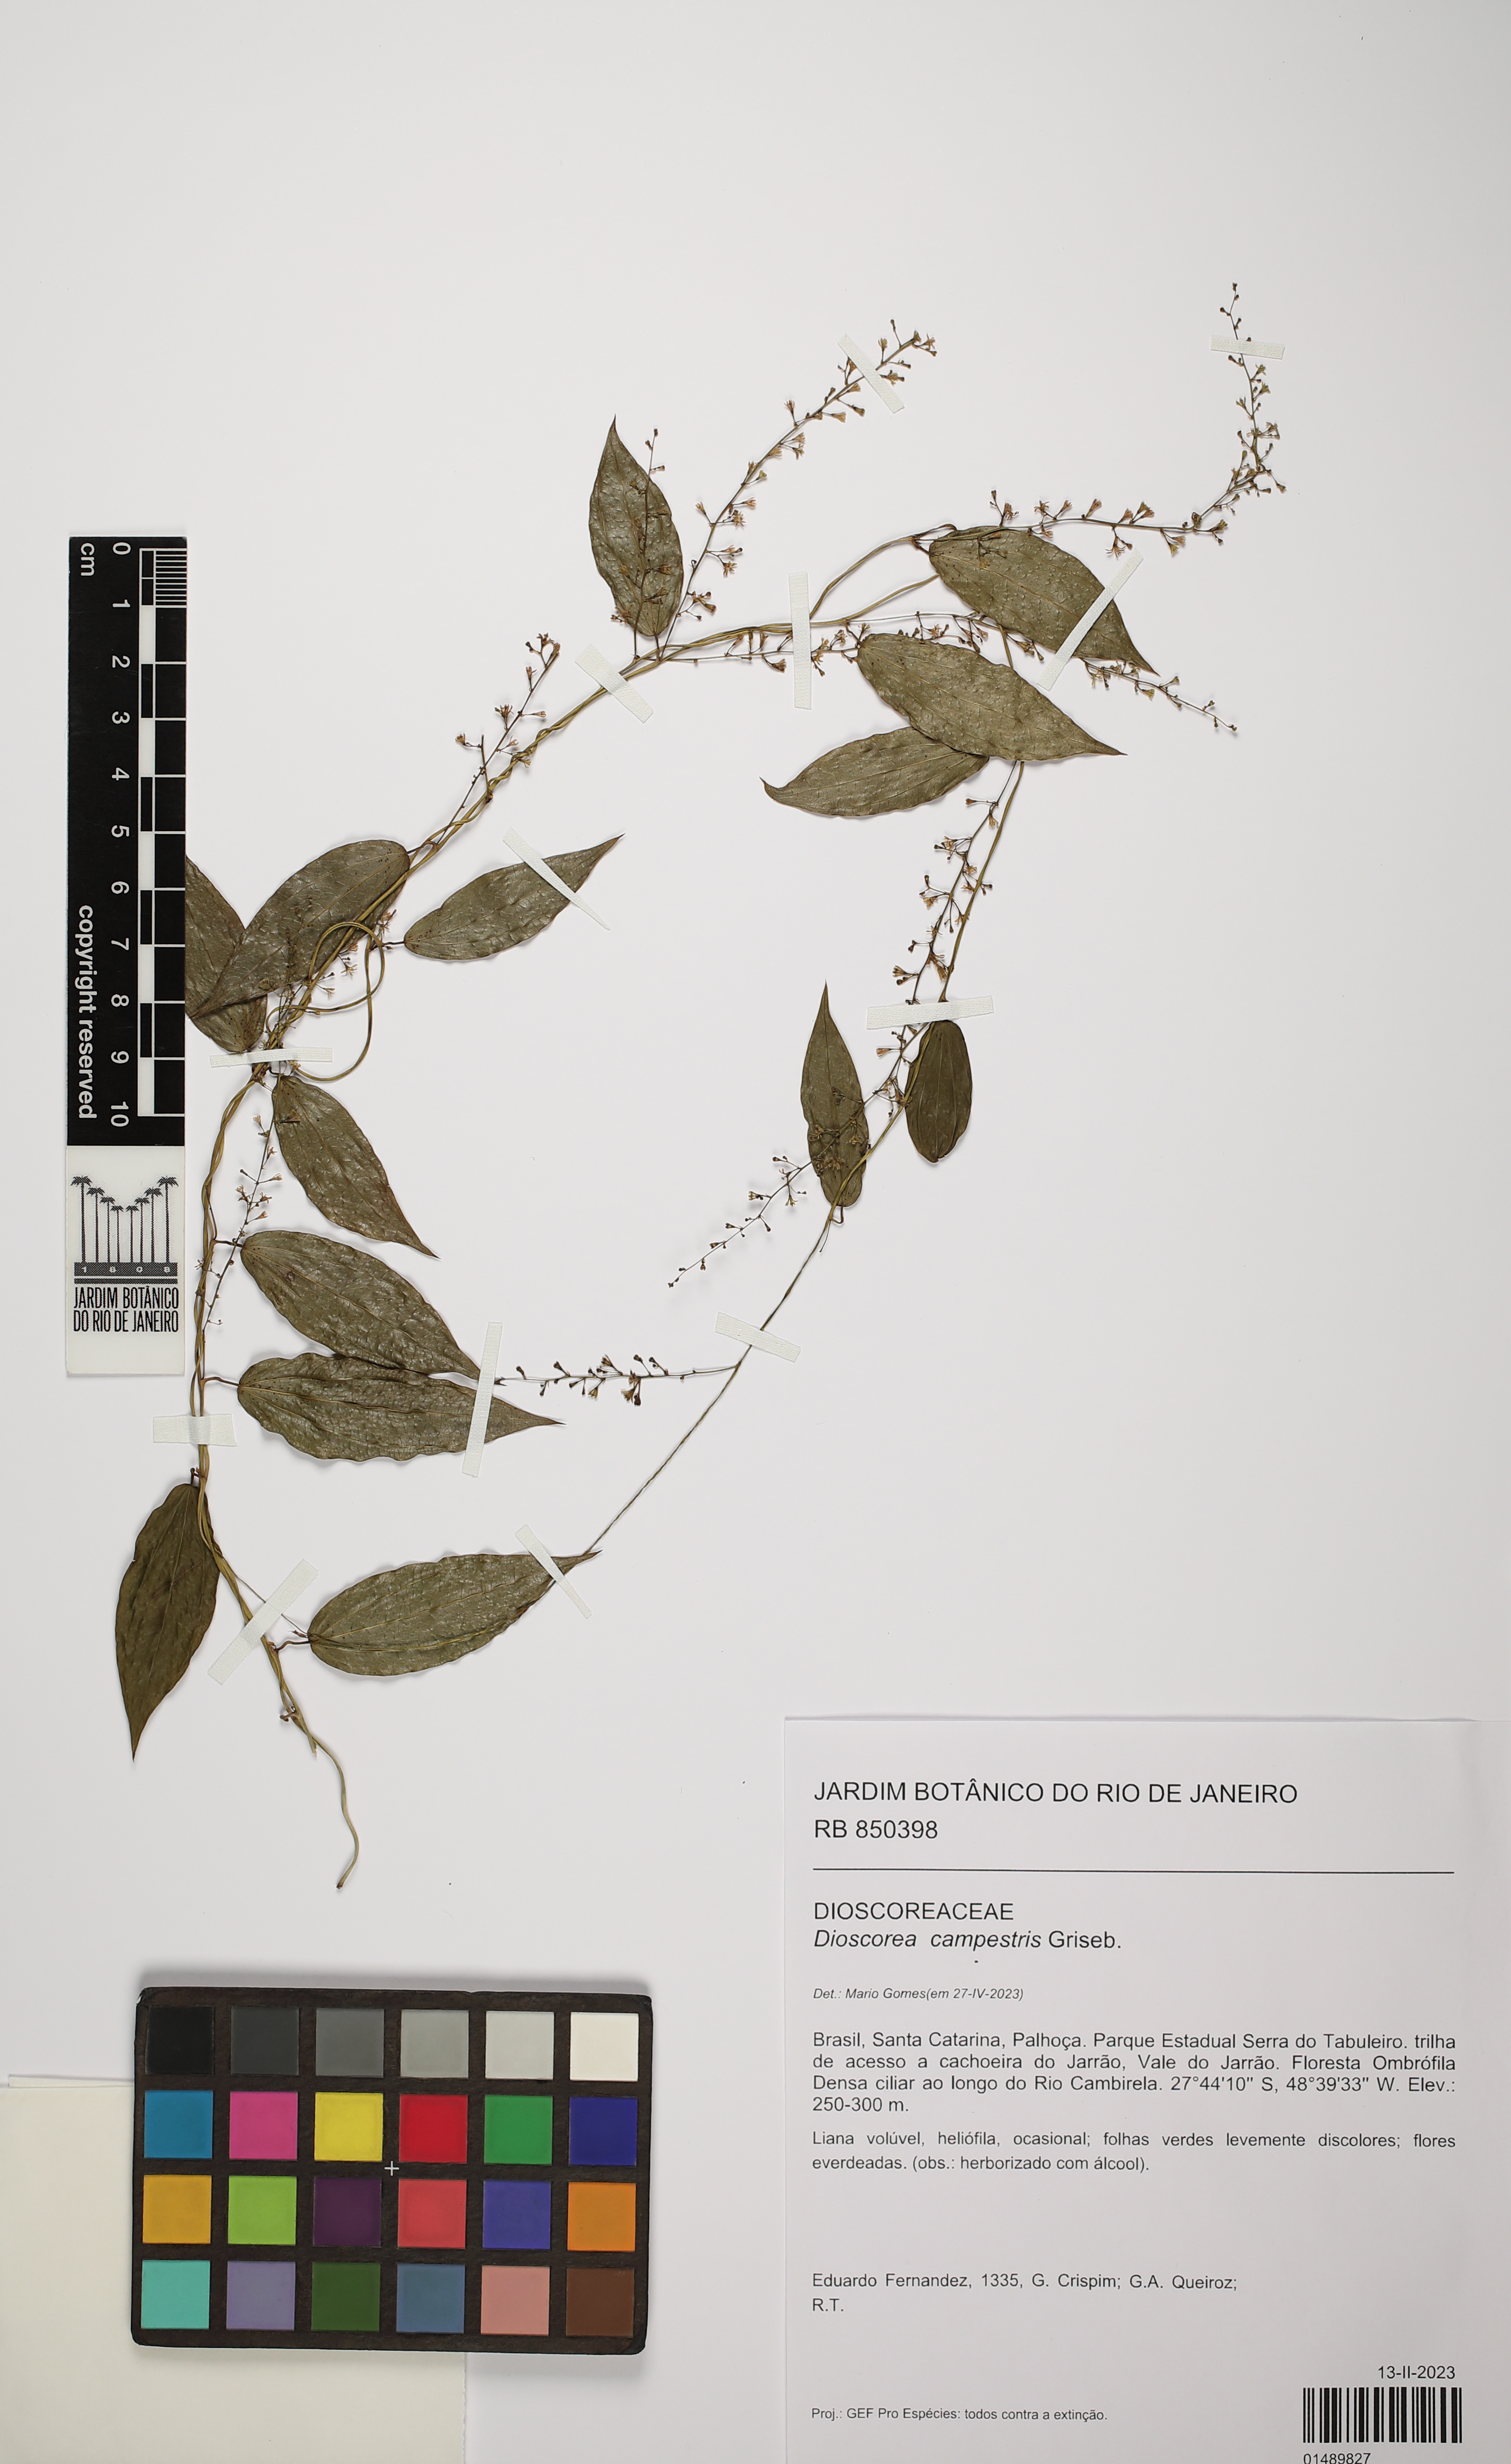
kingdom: Plantae
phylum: Tracheophyta
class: Liliopsida
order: Dioscoreales
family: Dioscoreaceae
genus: Dioscorea
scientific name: Dioscorea campestris
